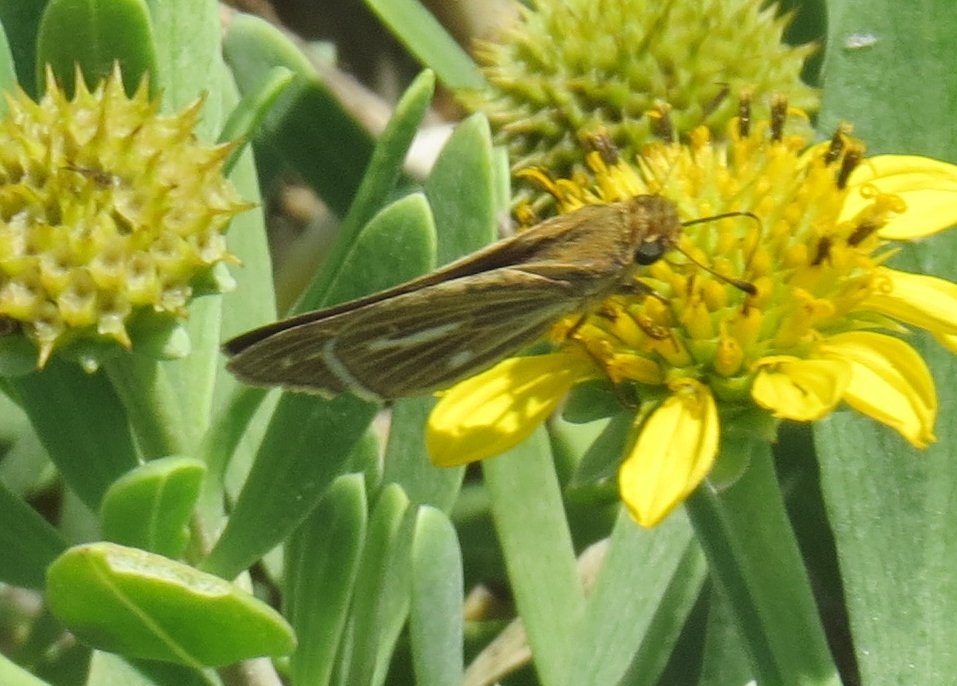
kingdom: Animalia
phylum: Arthropoda
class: Insecta
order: Lepidoptera
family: Hesperiidae
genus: Panoquina
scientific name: Panoquina panoquin
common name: Salt Marsh Skipper
